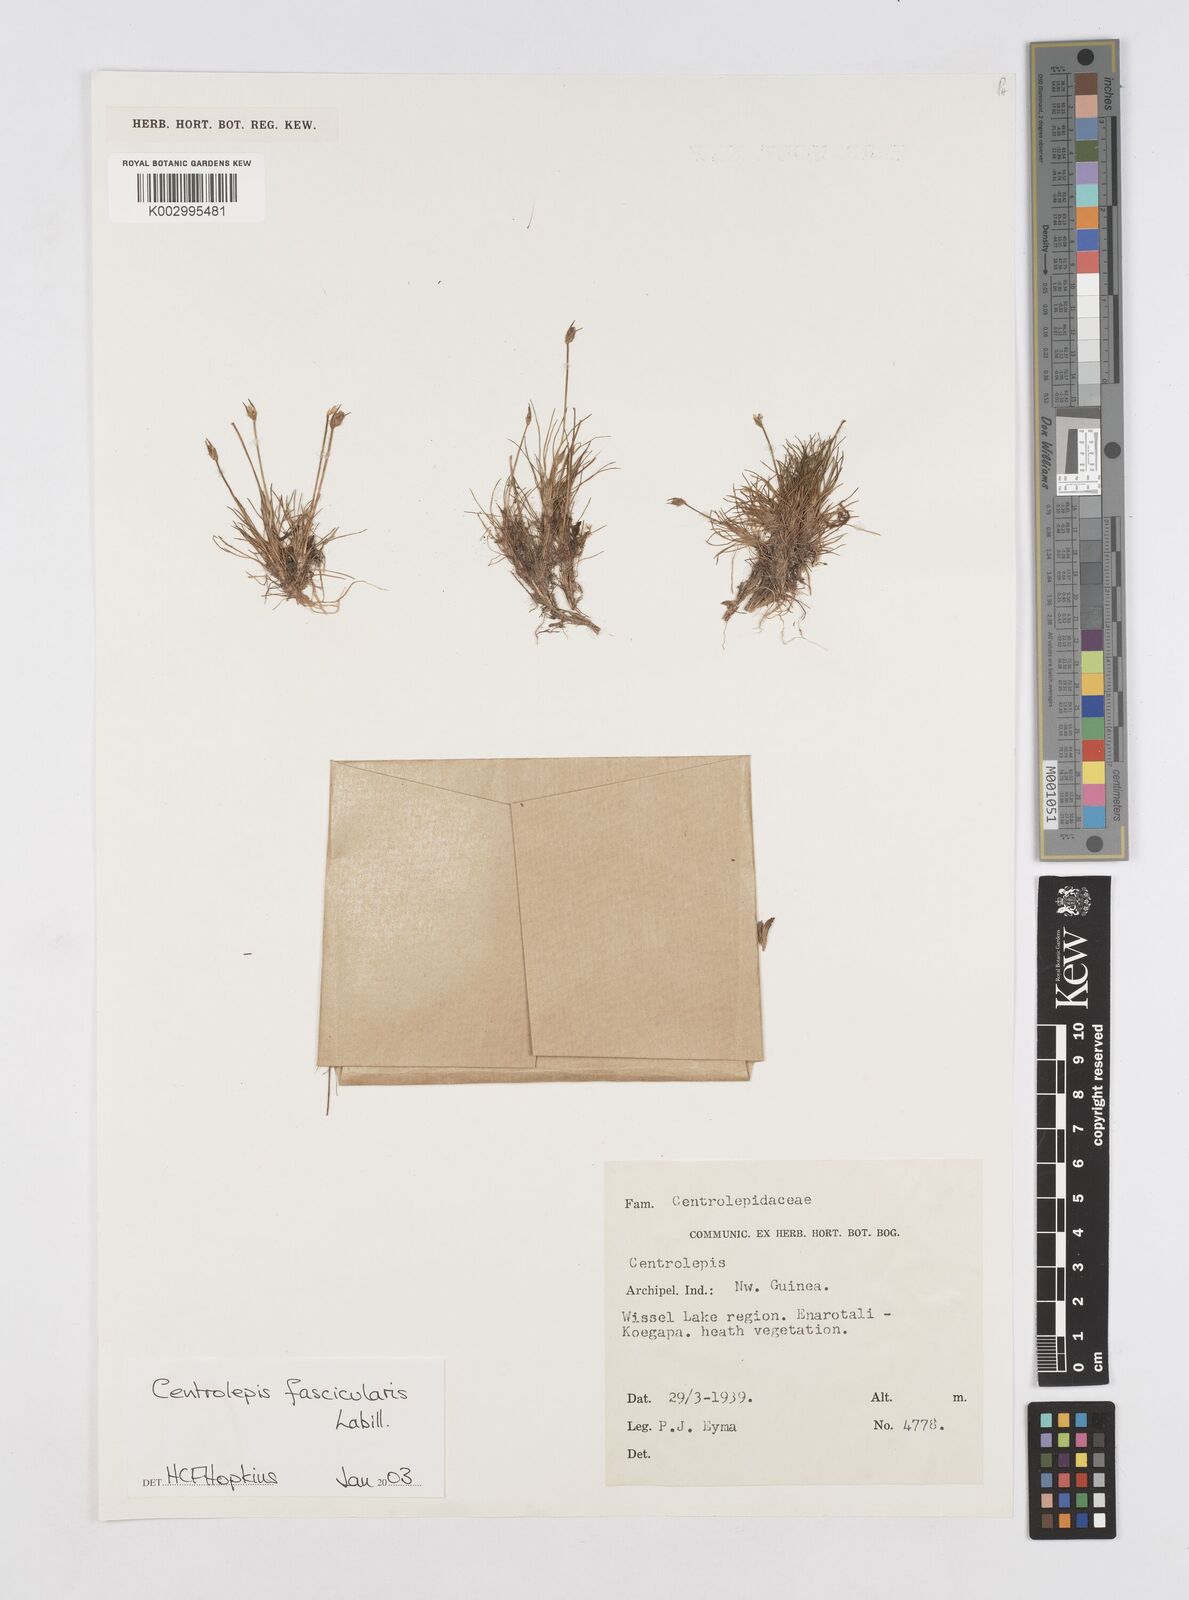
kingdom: Plantae
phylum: Tracheophyta
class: Liliopsida
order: Poales
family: Restionaceae
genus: Centrolepis
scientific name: Centrolepis fascicularis
